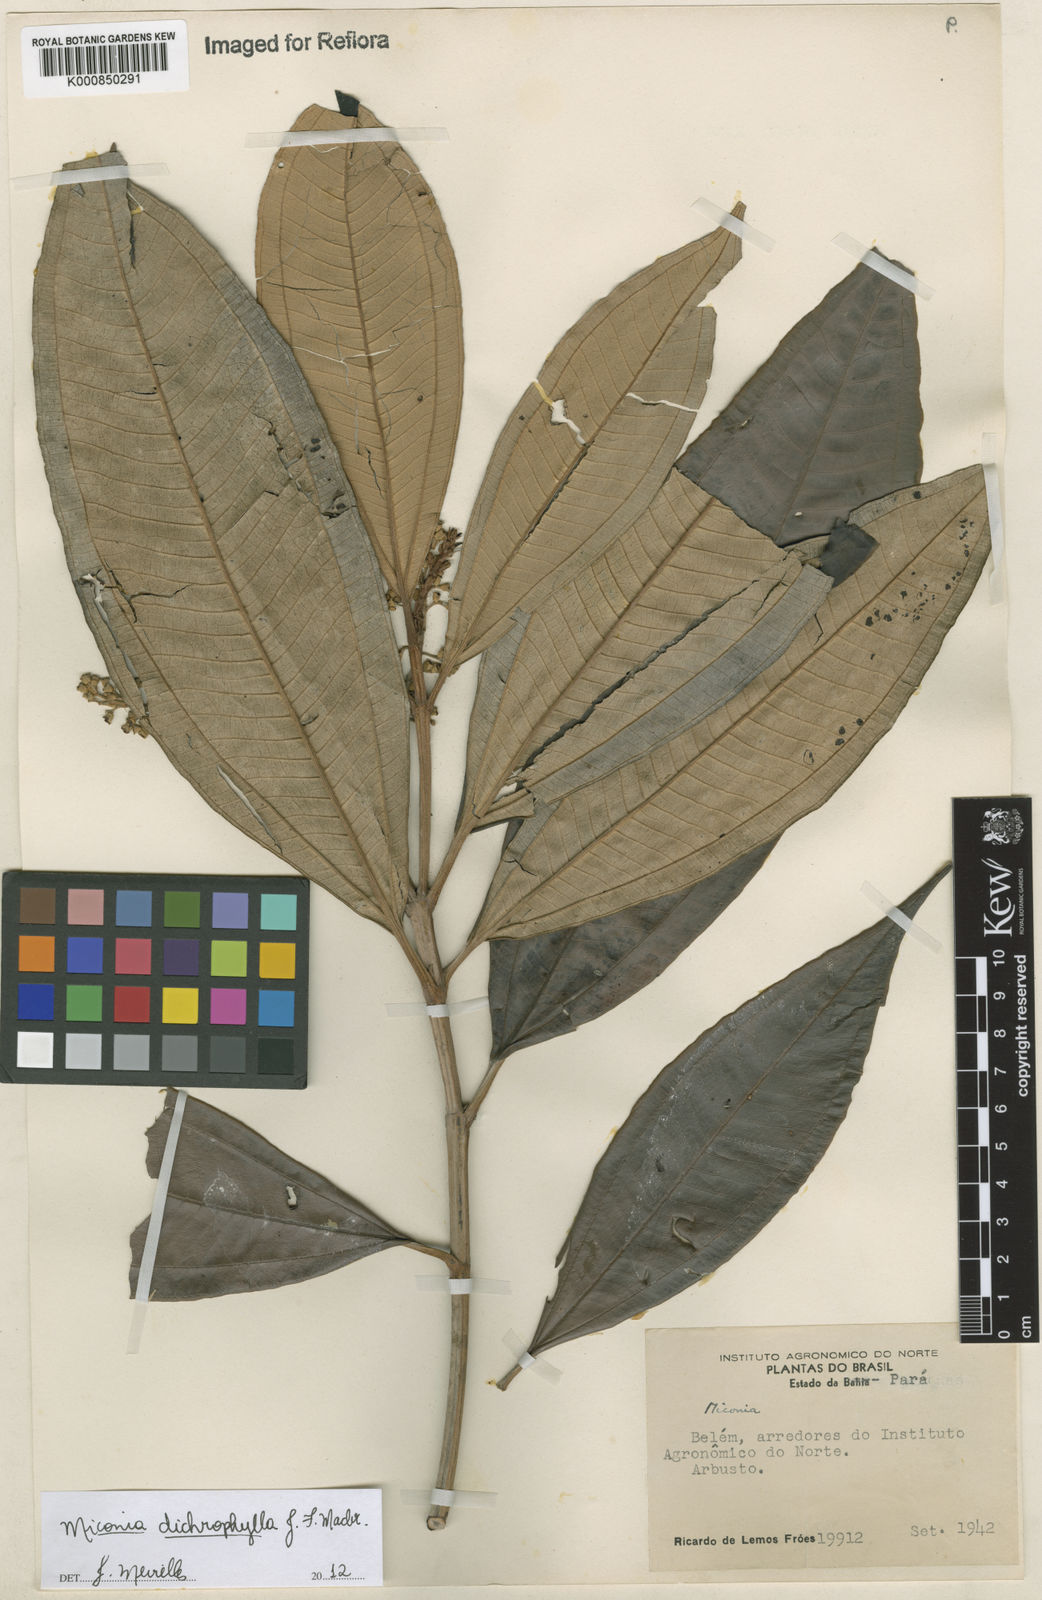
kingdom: Plantae
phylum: Tracheophyta
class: Magnoliopsida
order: Myrtales
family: Melastomataceae
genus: Miconia
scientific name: Miconia
